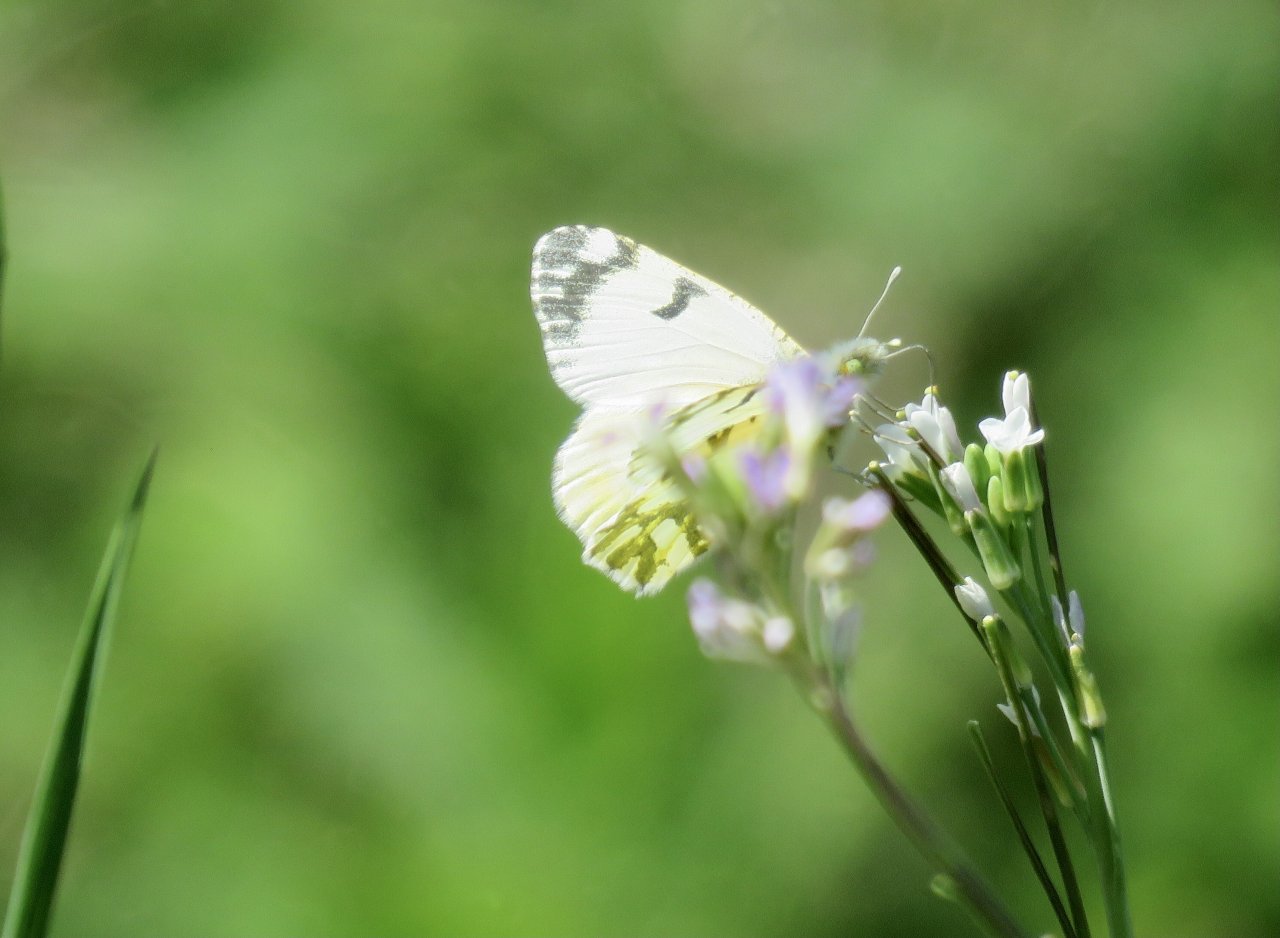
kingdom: Animalia
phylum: Arthropoda
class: Insecta
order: Lepidoptera
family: Pieridae
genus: Euchloe
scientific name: Euchloe ausonides
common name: Large Marble
